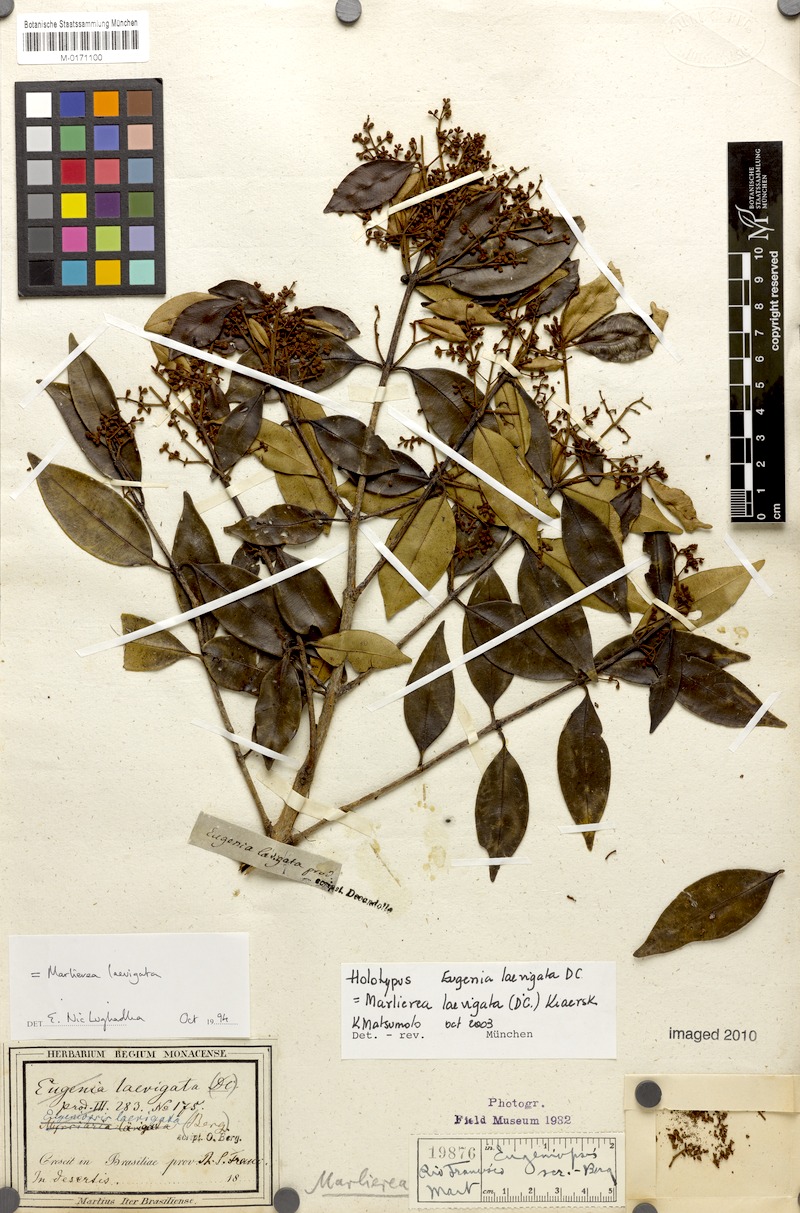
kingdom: Plantae
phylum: Tracheophyta
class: Magnoliopsida
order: Myrtales
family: Myrtaceae
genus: Myrcia
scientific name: Myrcia multipunctata
